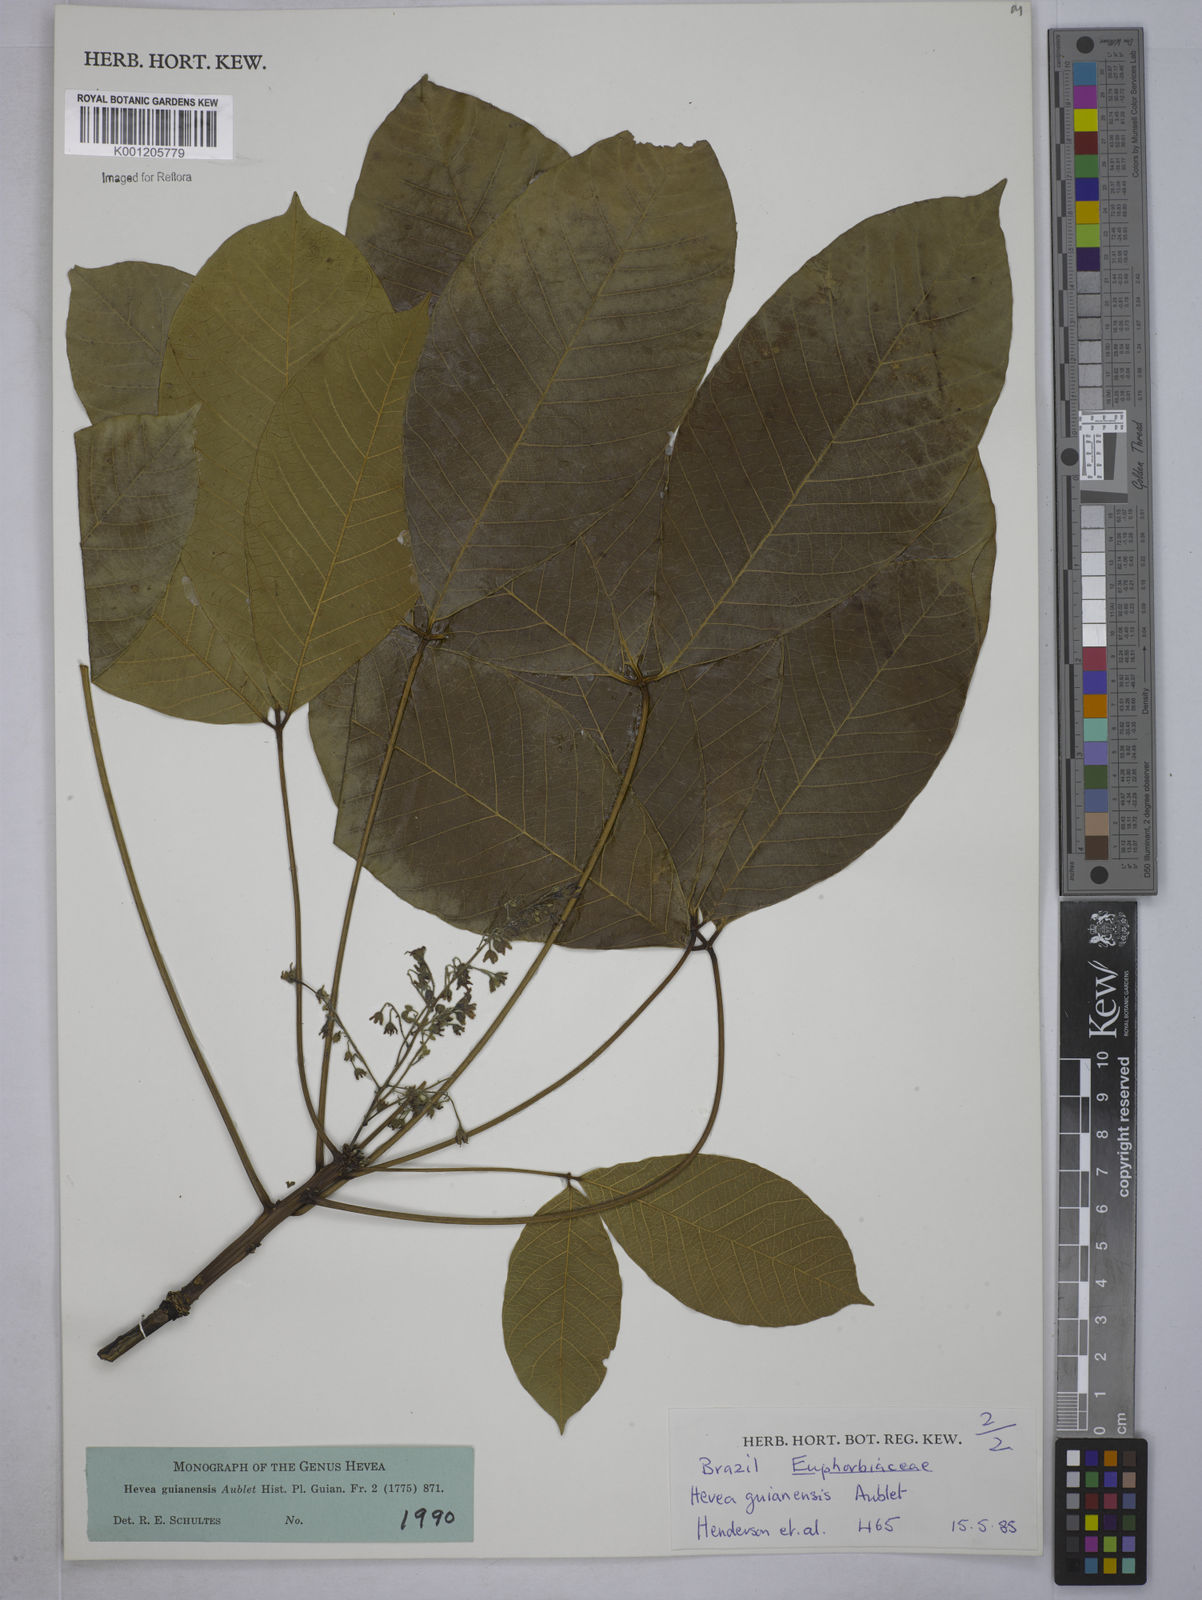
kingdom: Plantae
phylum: Tracheophyta
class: Magnoliopsida
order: Malpighiales
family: Euphorbiaceae
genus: Hevea
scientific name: Hevea guianensis
